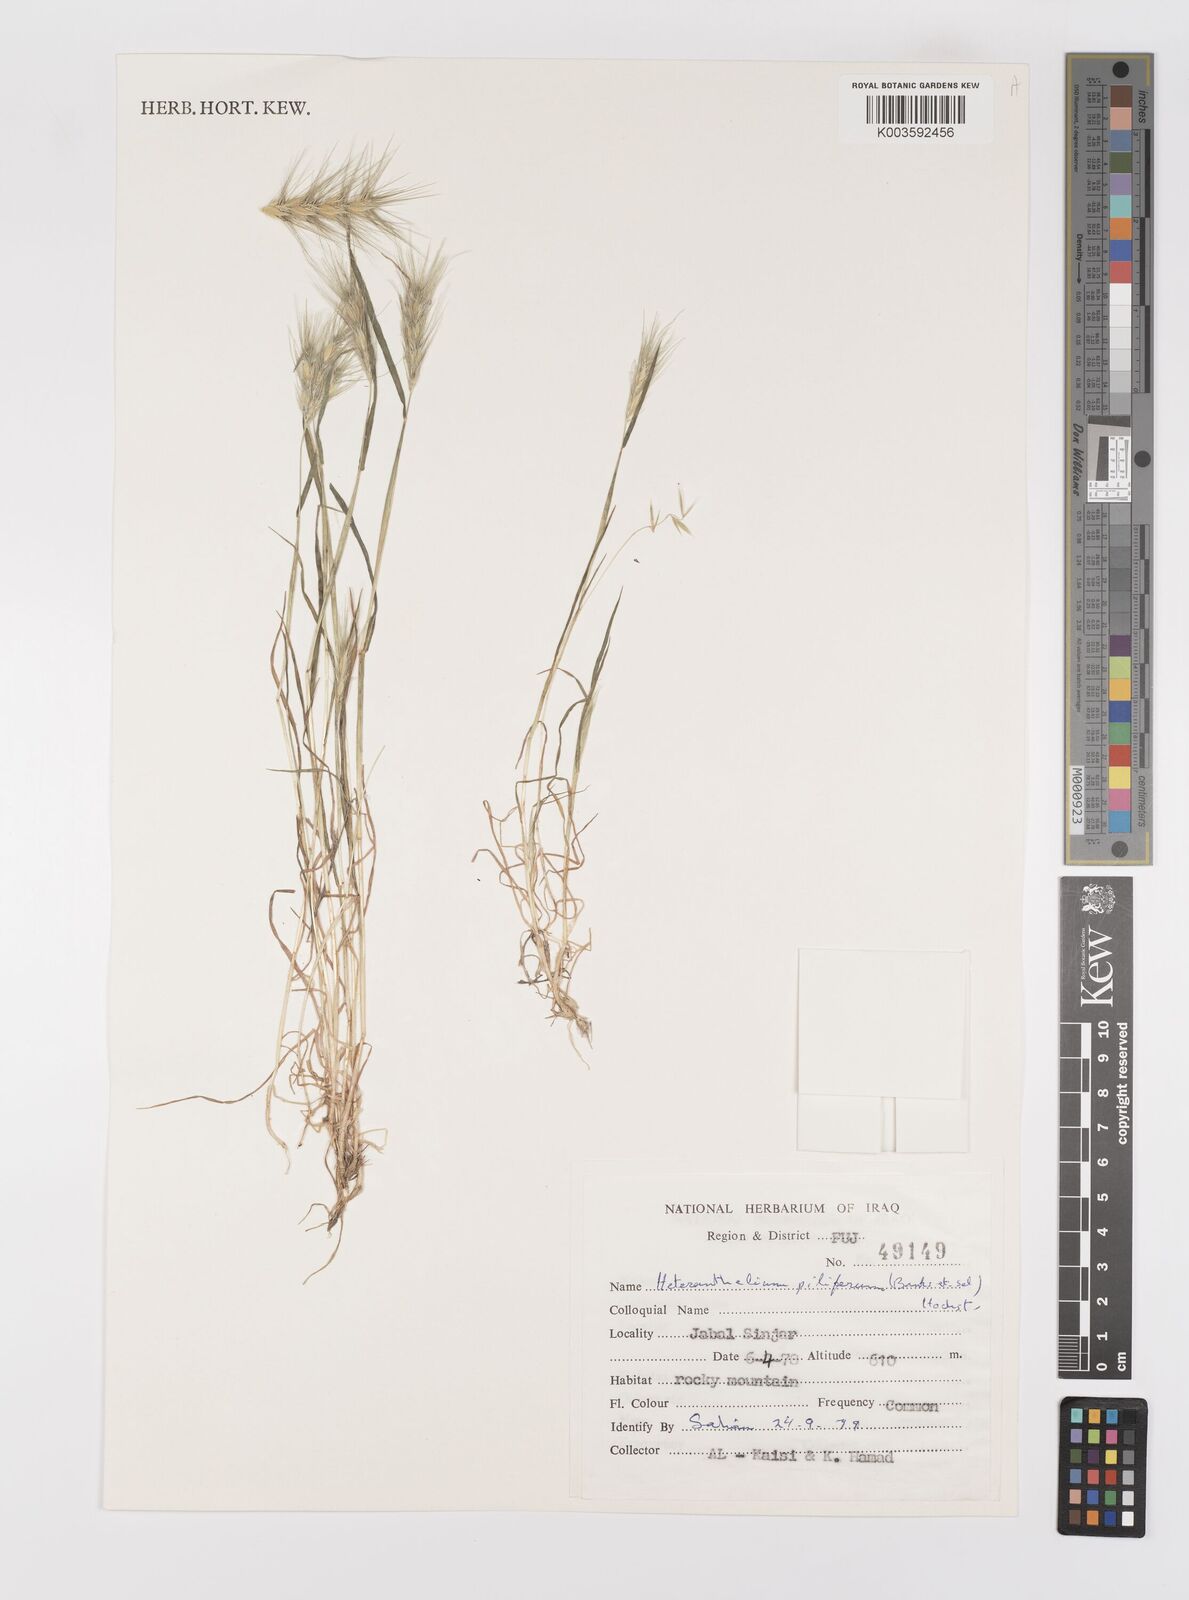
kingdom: Plantae
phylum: Tracheophyta
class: Liliopsida
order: Poales
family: Poaceae
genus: Heteranthelium
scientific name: Heteranthelium piliferum
